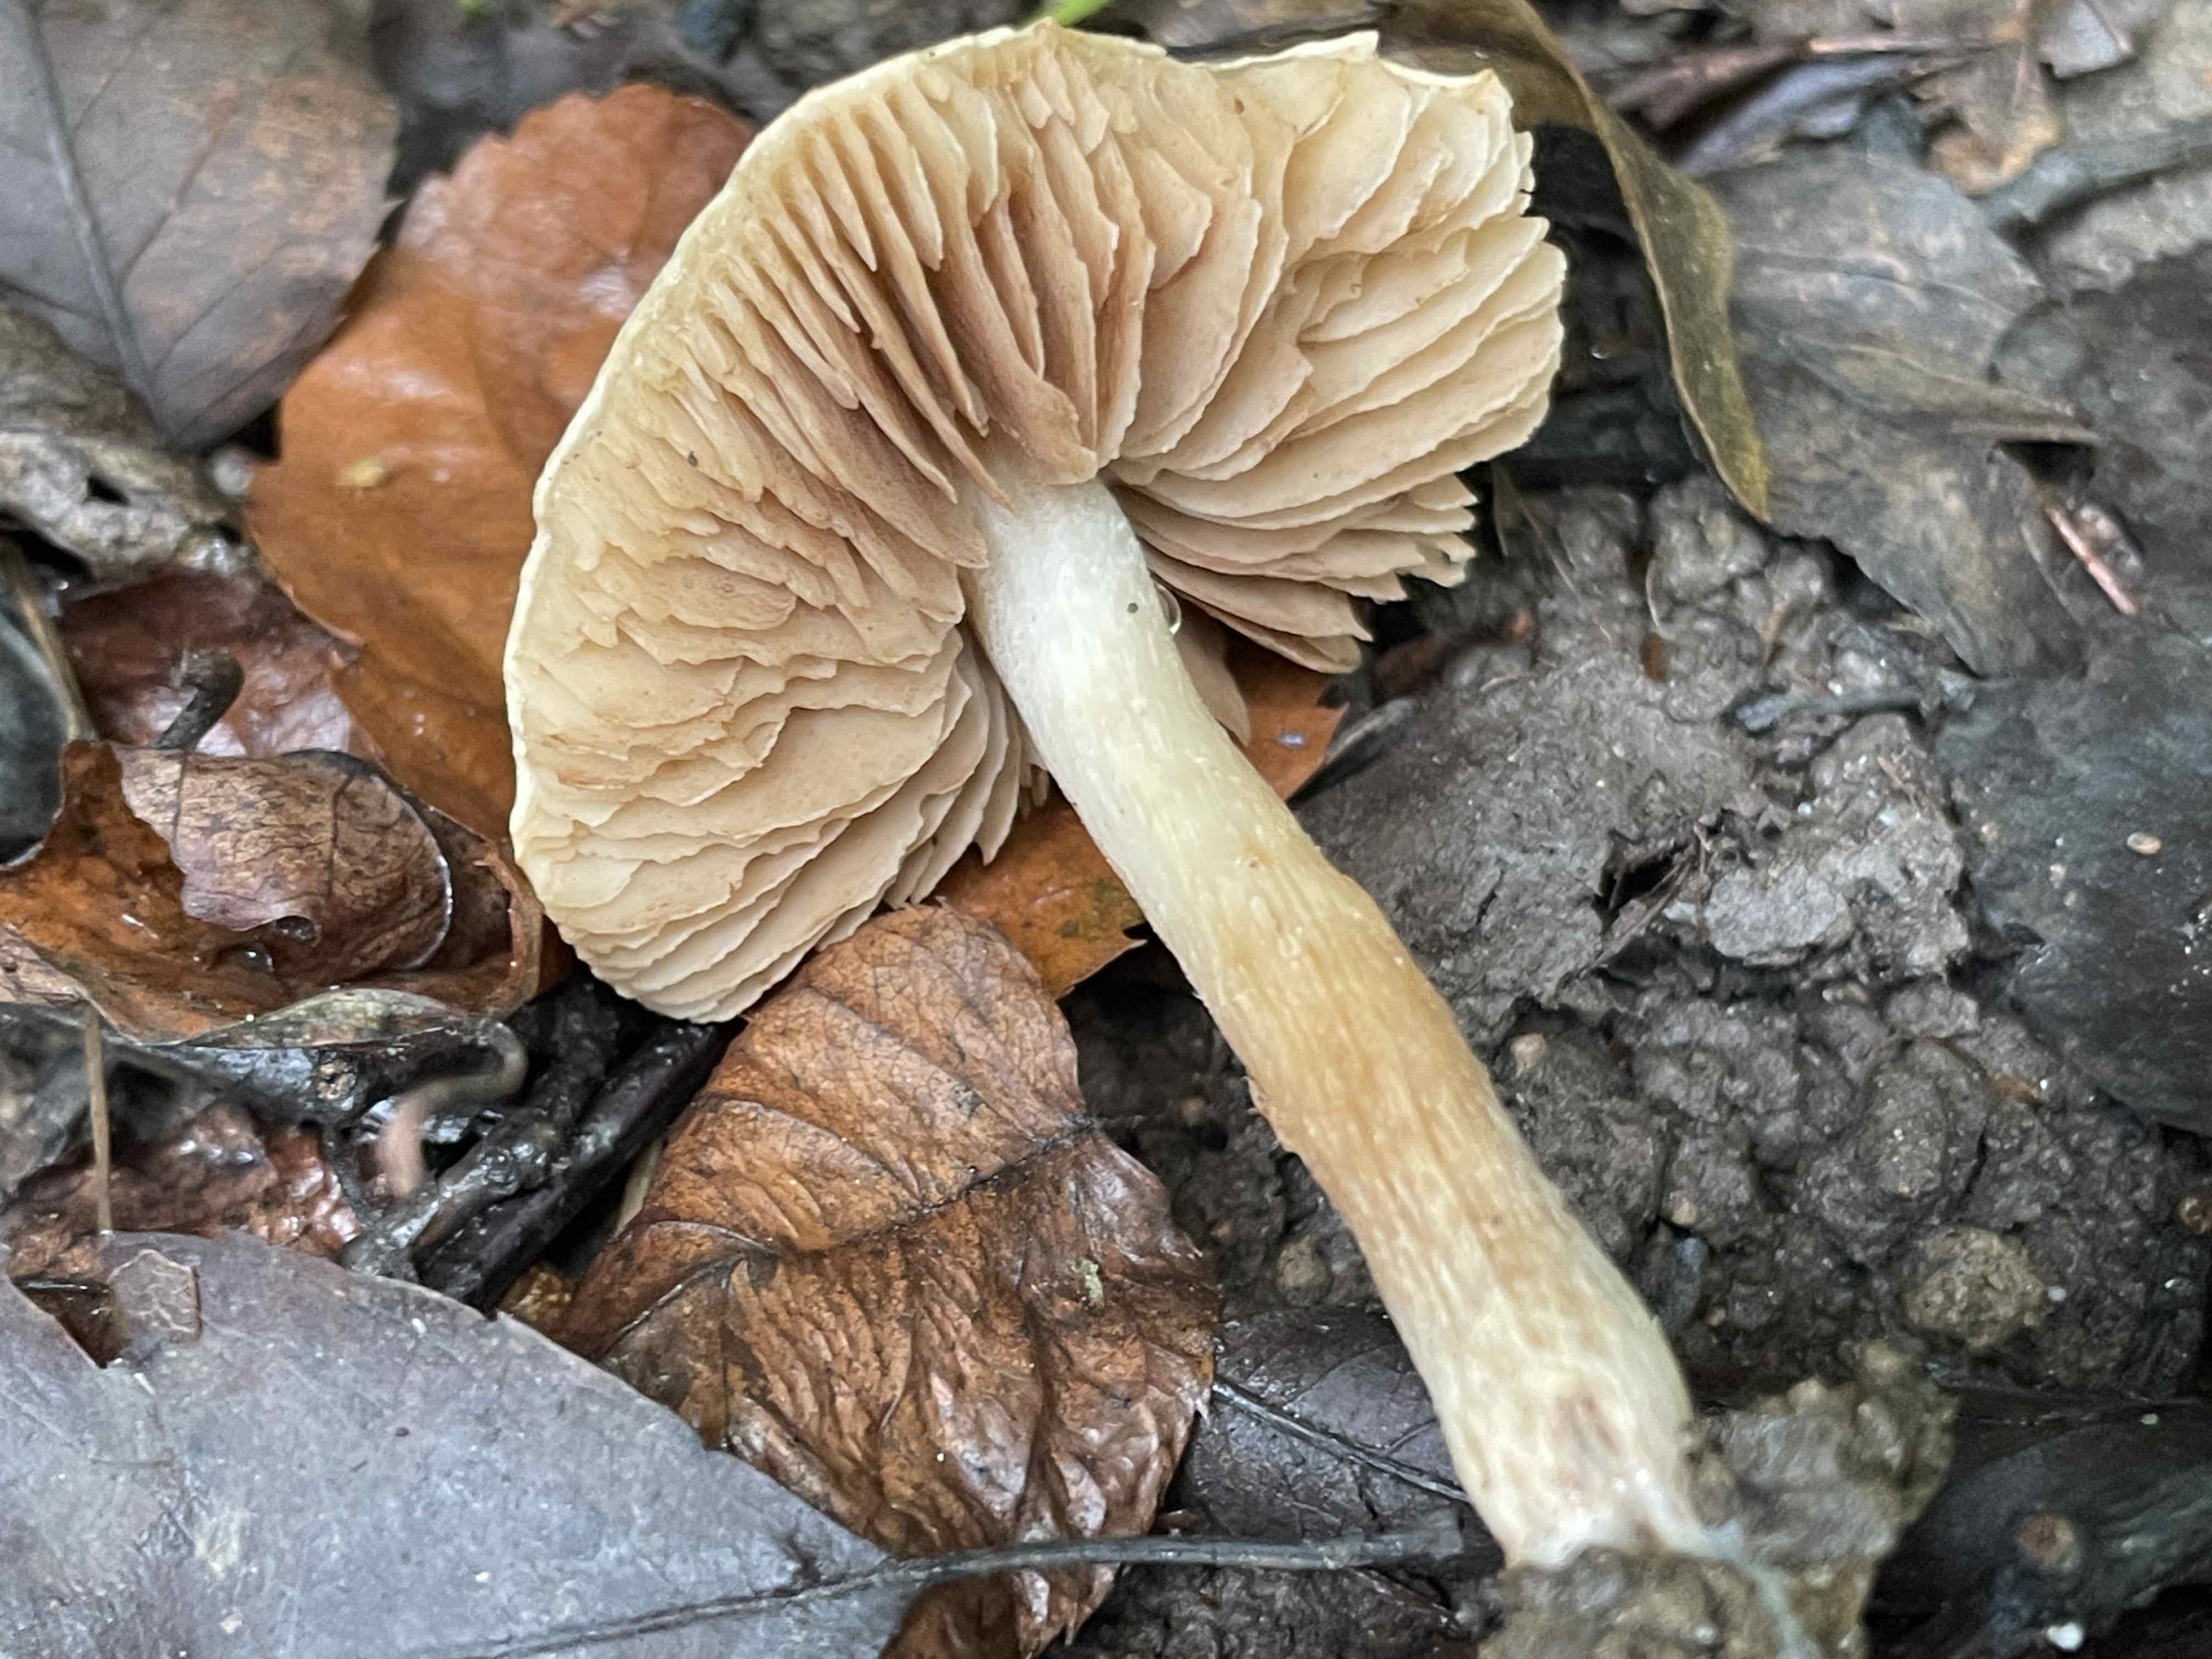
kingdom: Fungi
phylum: Basidiomycota
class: Agaricomycetes
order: Agaricales
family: Hymenogastraceae
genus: Hebeloma
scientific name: Hebeloma
